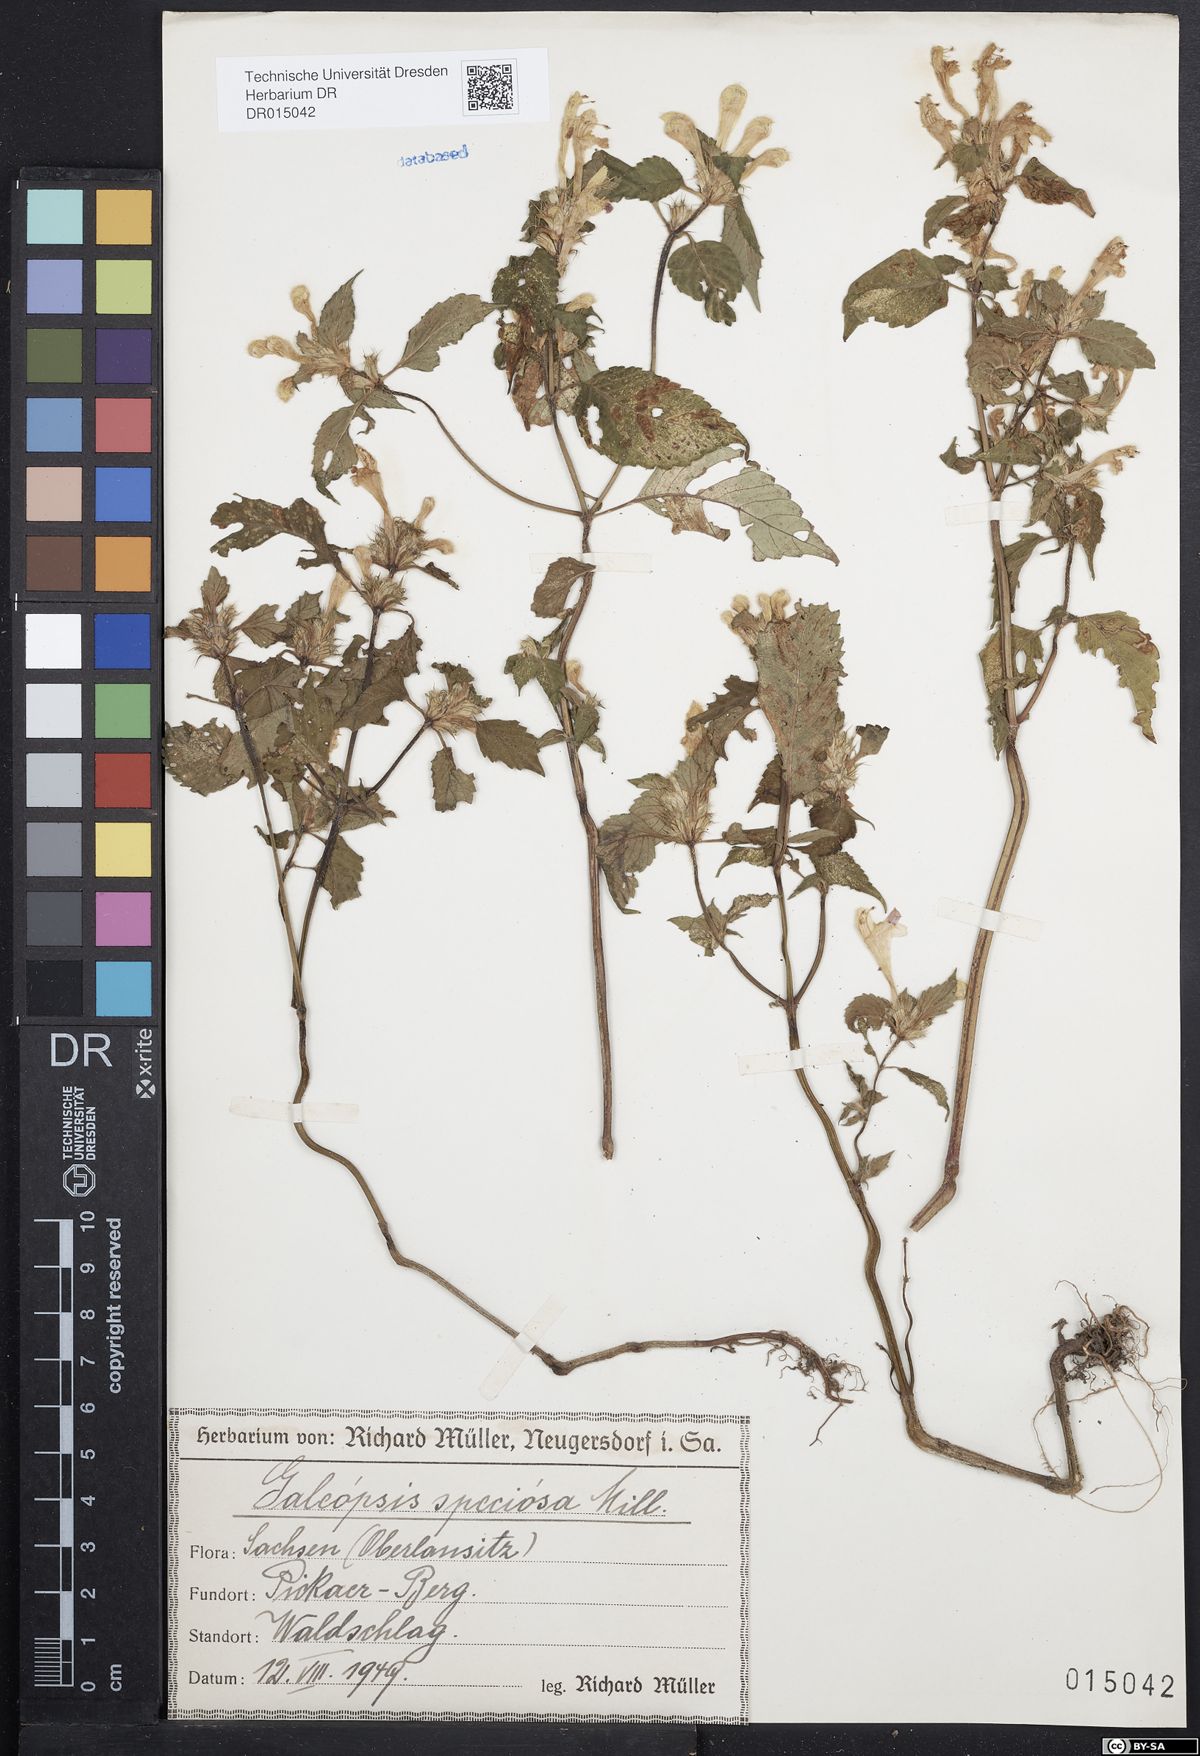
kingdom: Plantae
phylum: Tracheophyta
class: Magnoliopsida
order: Lamiales
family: Lamiaceae
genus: Galeopsis
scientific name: Galeopsis speciosa
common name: Large-flowered hemp-nettle
